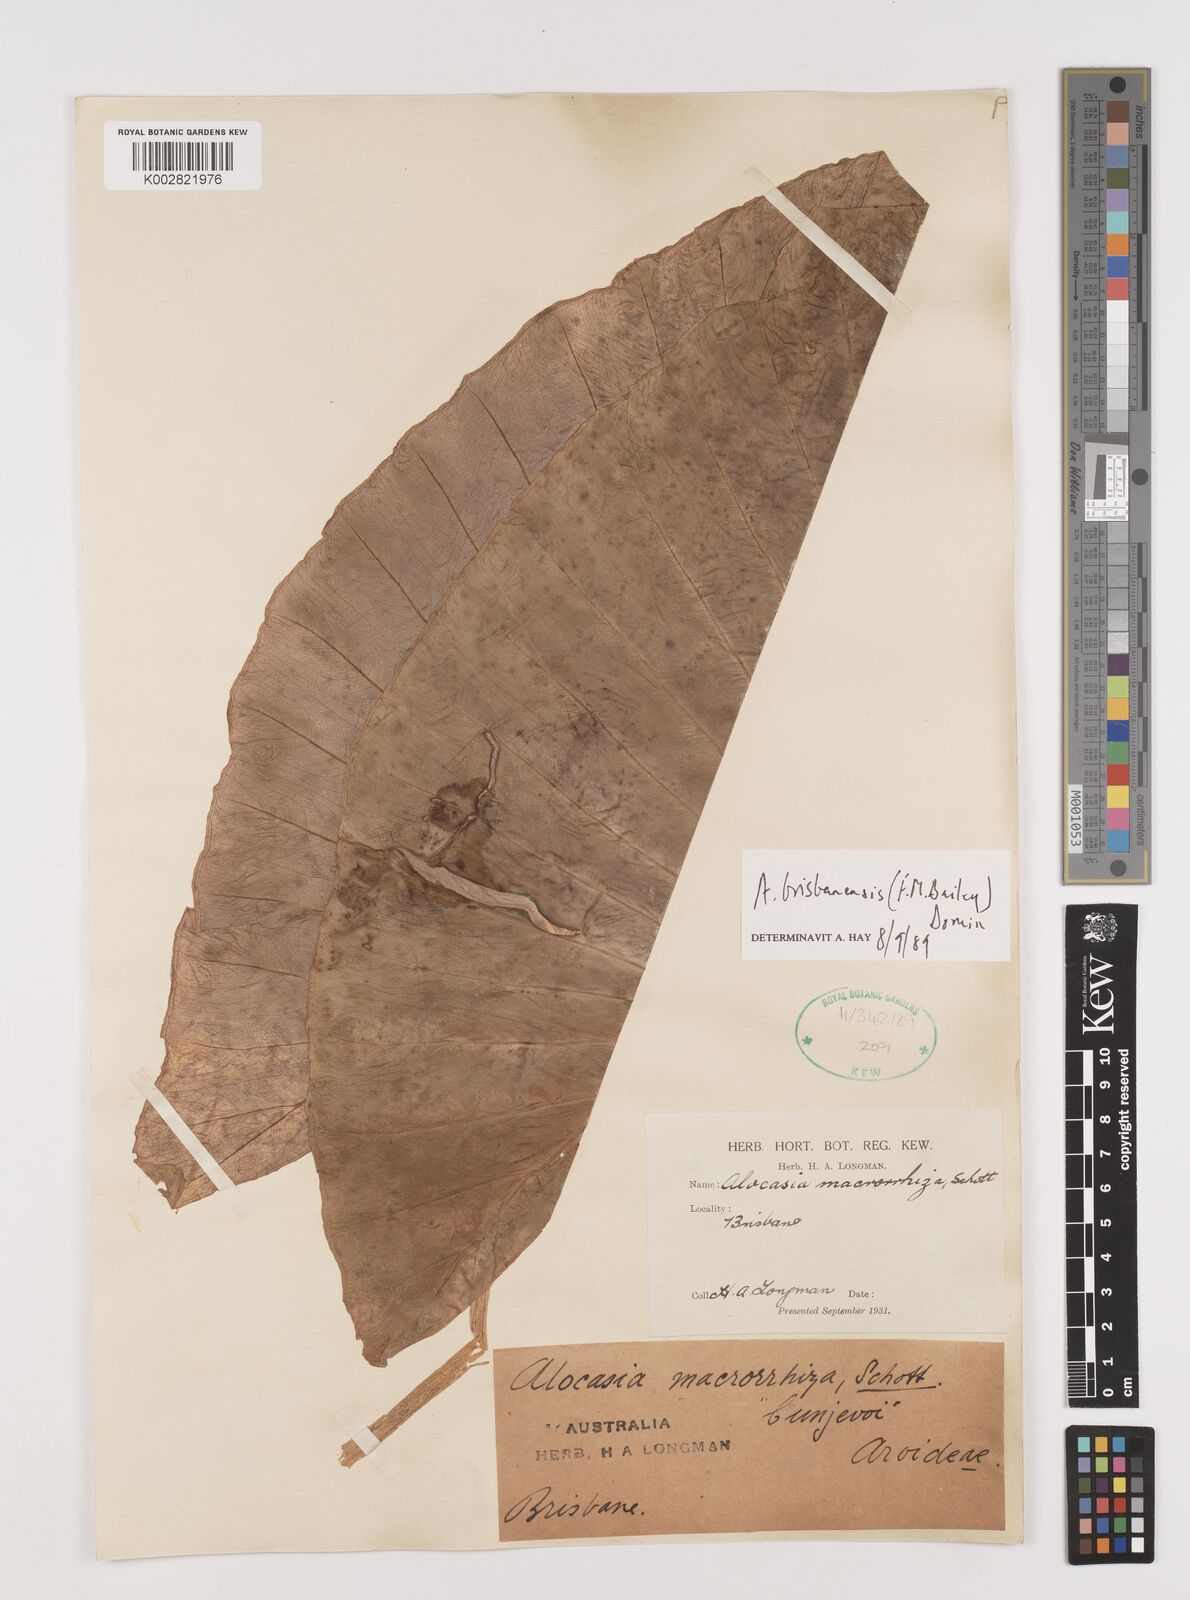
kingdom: Plantae
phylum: Tracheophyta
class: Liliopsida
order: Alismatales
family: Araceae
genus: Alocasia
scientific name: Alocasia brisbanensis
